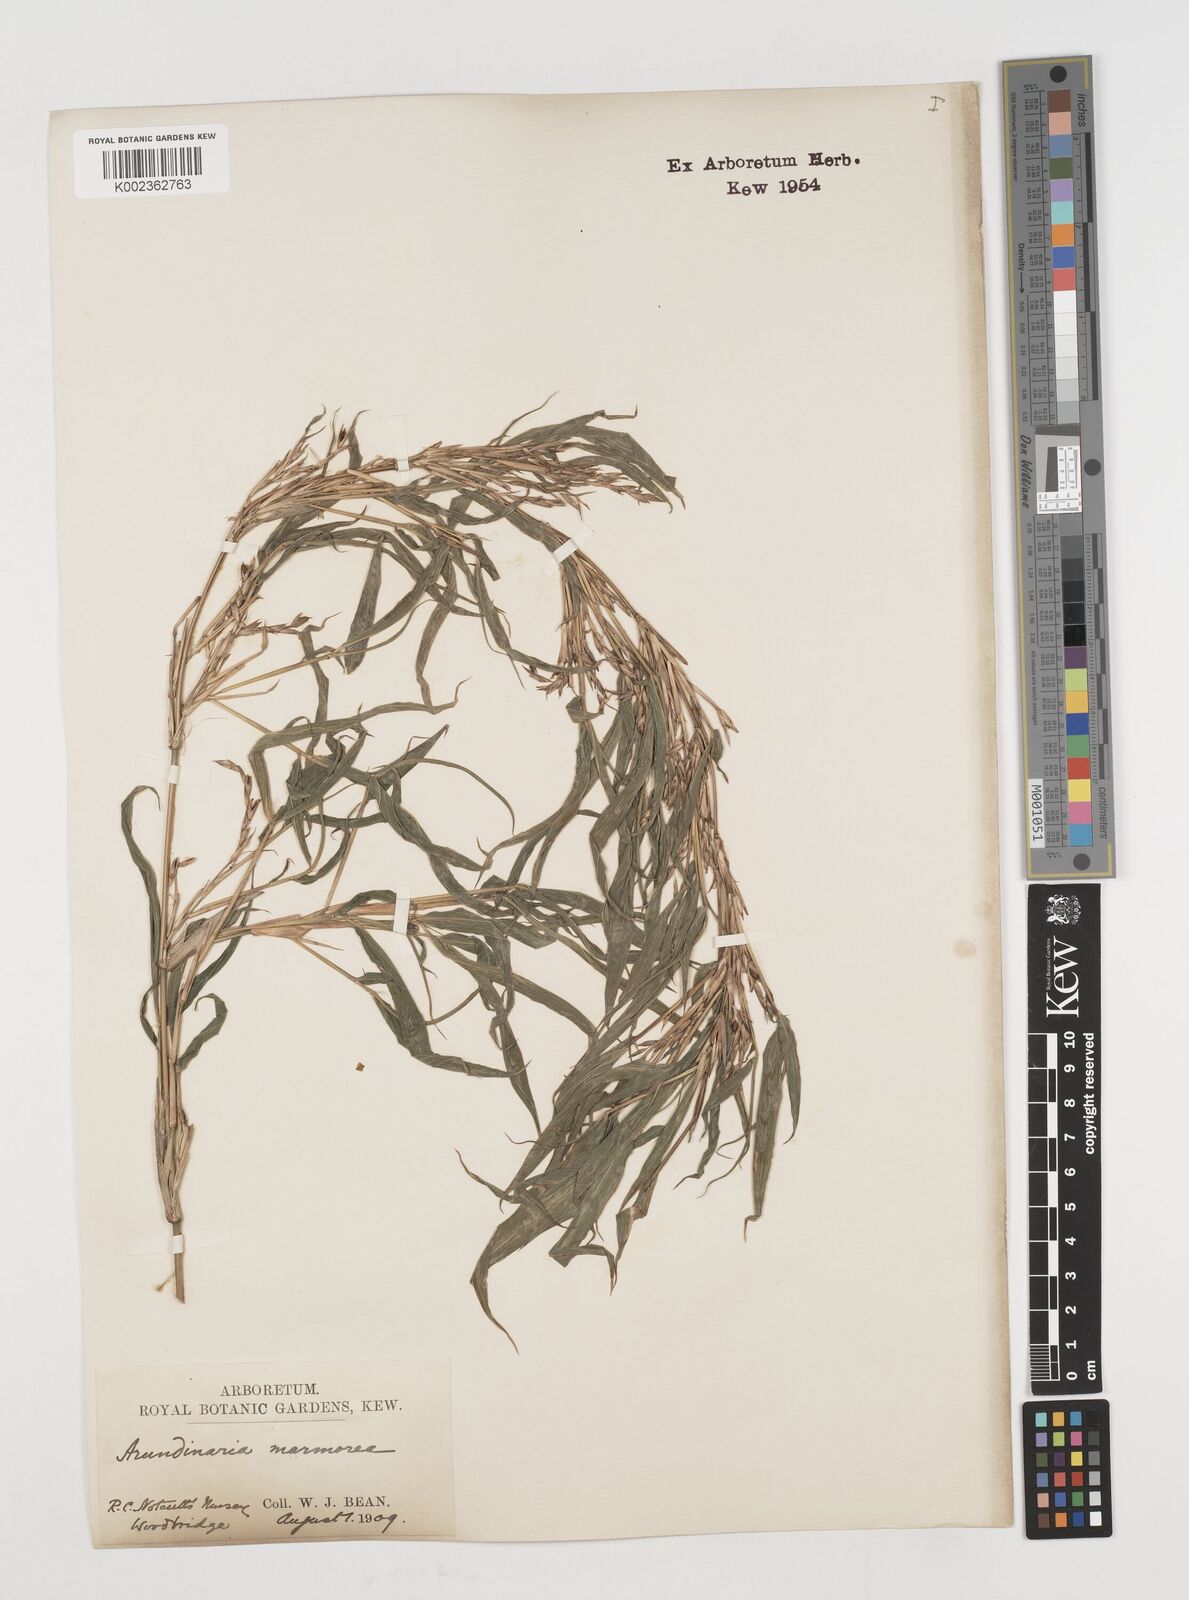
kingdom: Plantae
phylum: Tracheophyta
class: Liliopsida
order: Poales
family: Poaceae
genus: Chimonobambusa
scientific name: Chimonobambusa marmorea
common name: Marbled bamboo
